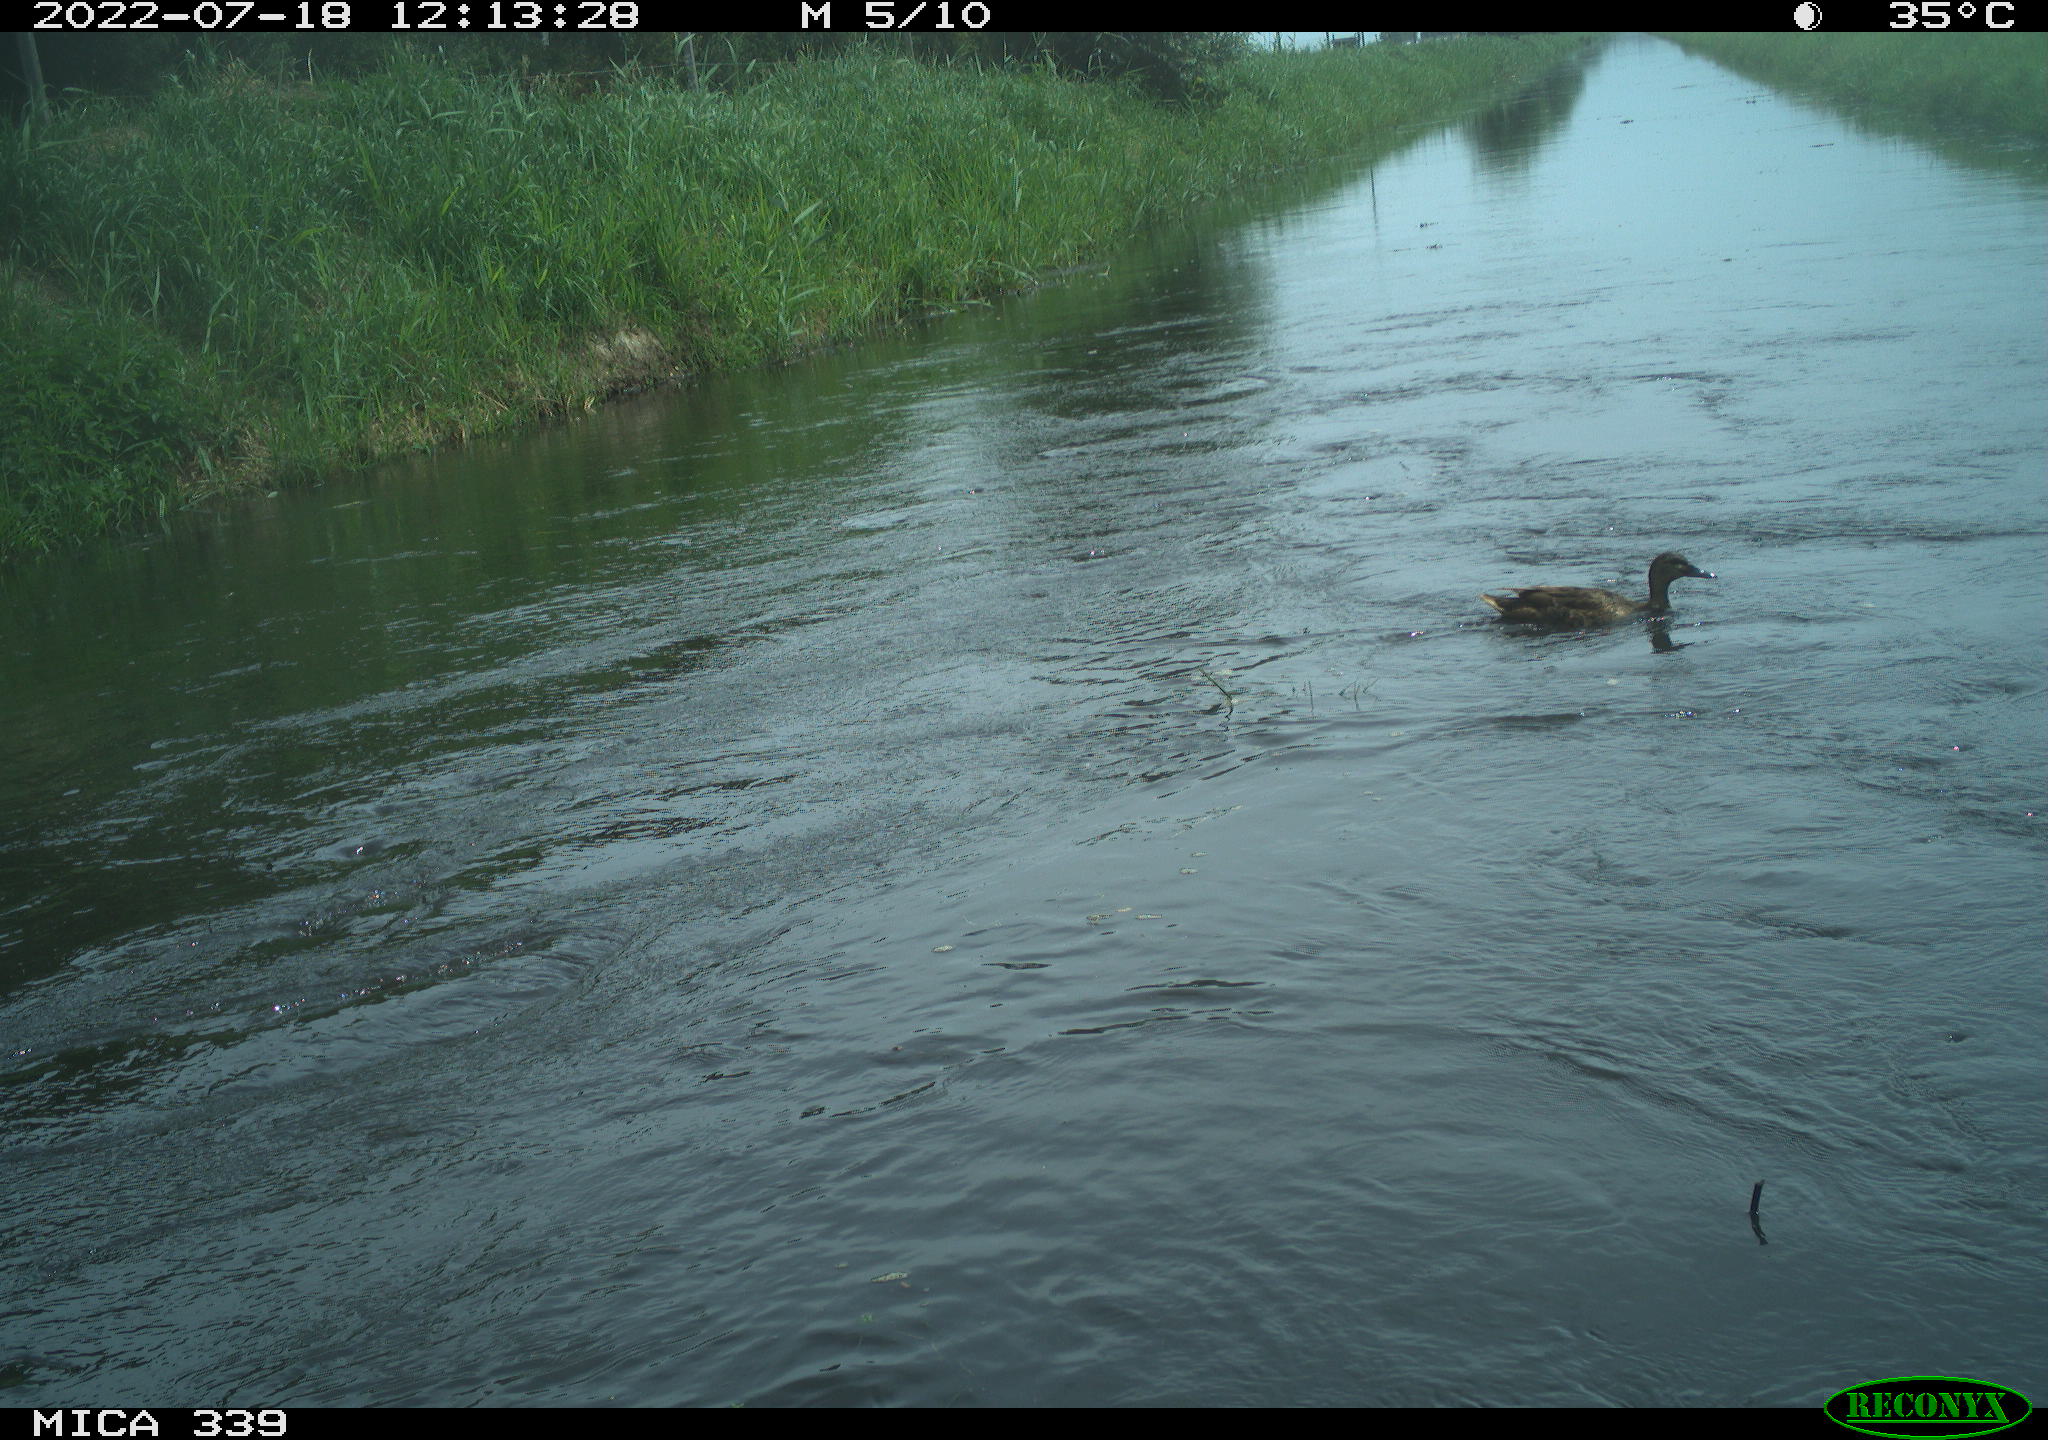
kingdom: Animalia
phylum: Chordata
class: Aves
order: Anseriformes
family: Anatidae
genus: Anas
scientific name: Anas platyrhynchos
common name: Mallard
